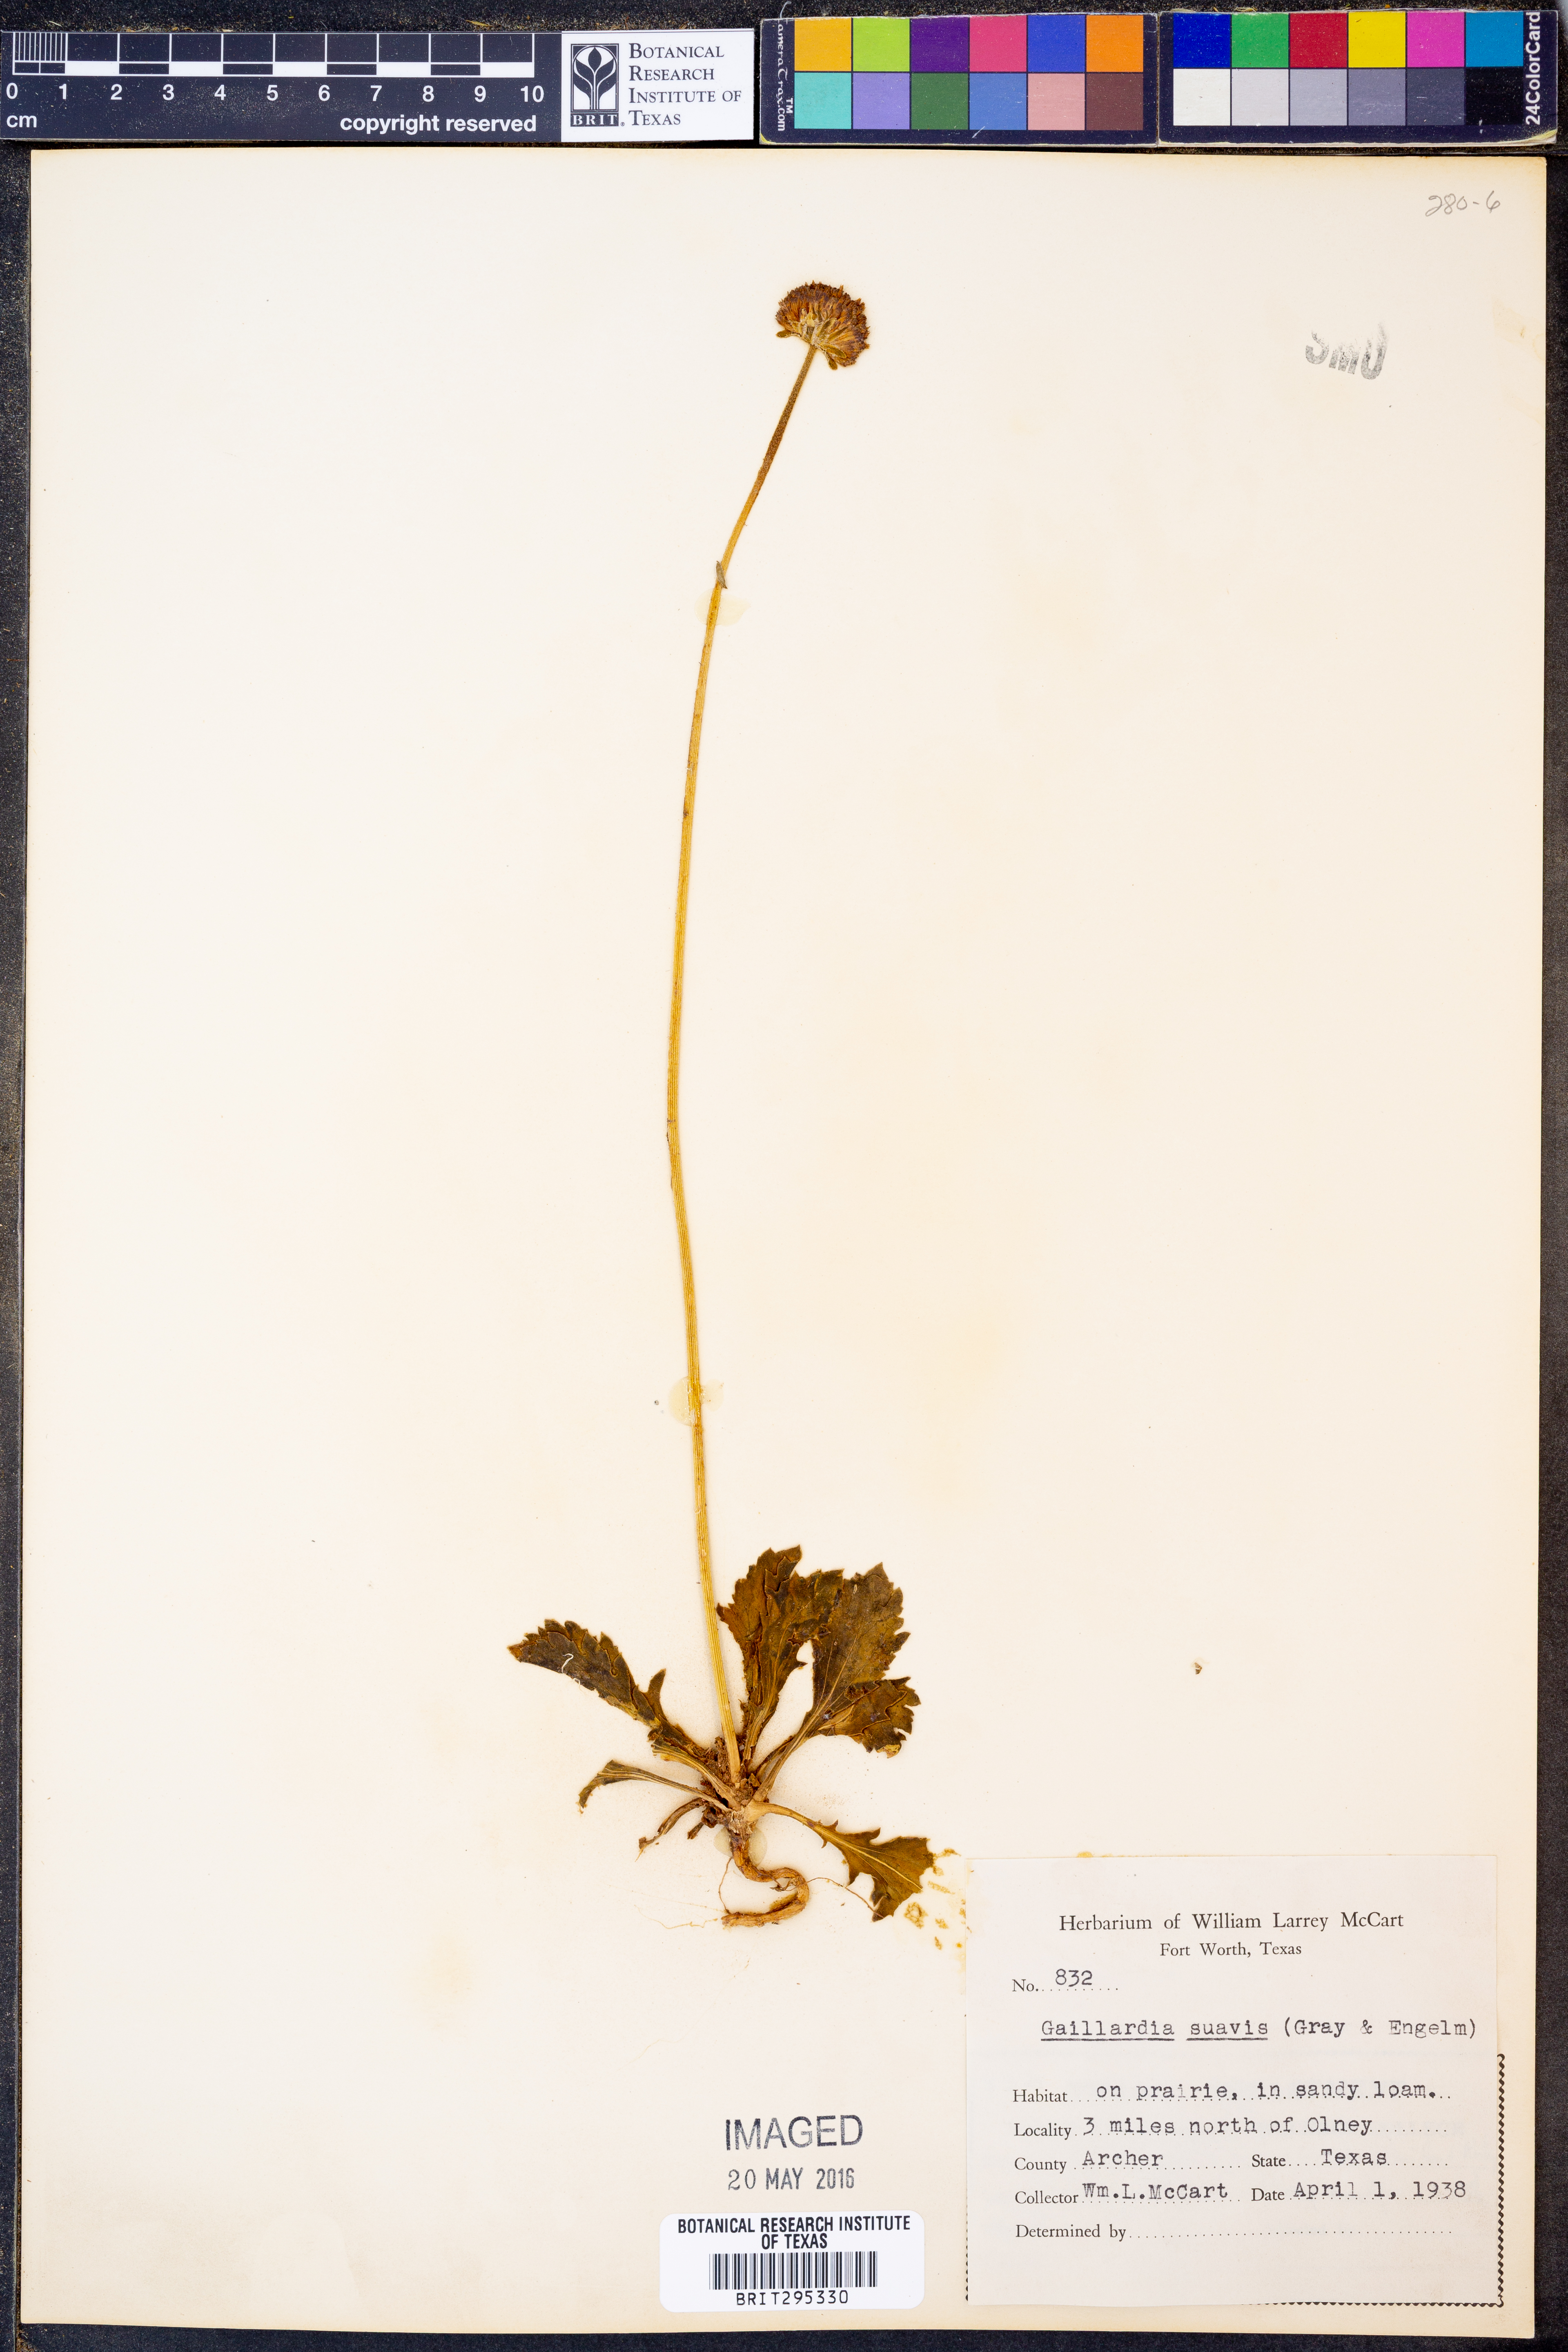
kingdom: Plantae
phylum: Tracheophyta
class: Magnoliopsida
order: Asterales
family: Asteraceae
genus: Gaillardia
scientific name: Gaillardia suavis
